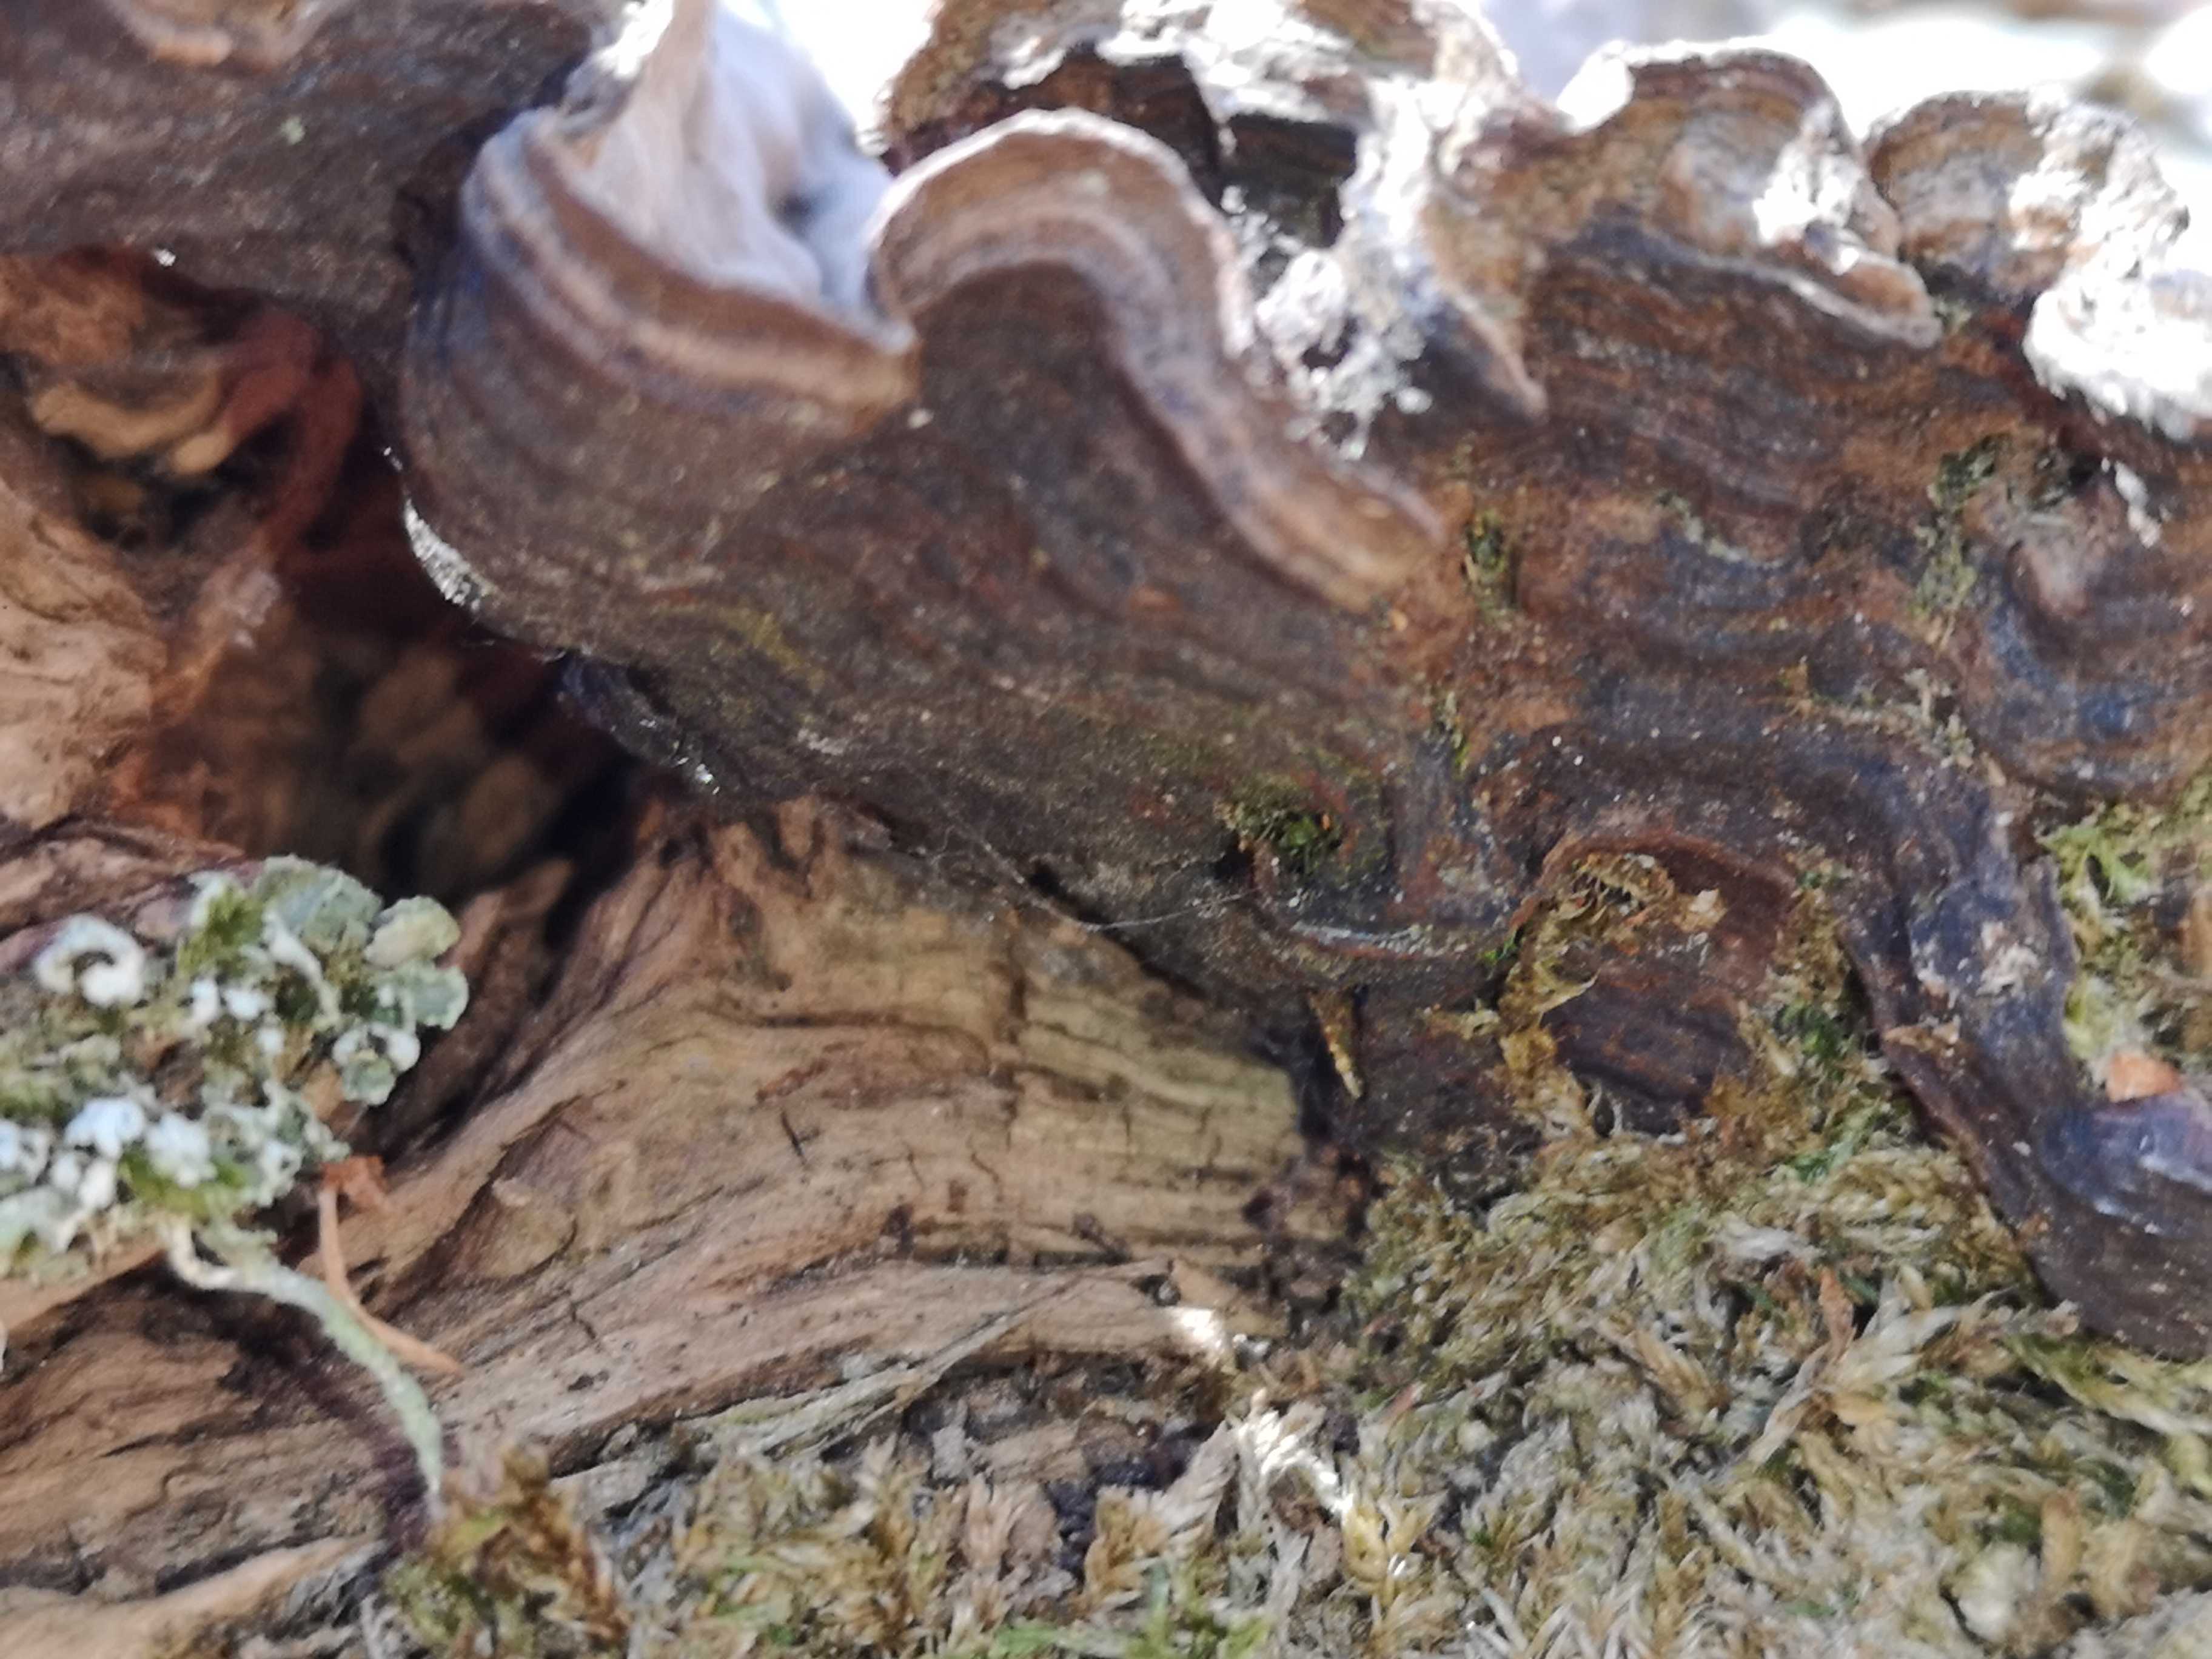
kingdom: Fungi
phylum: Basidiomycota
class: Agaricomycetes
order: Corticiales
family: Corticiaceae
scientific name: Corticiaceae
